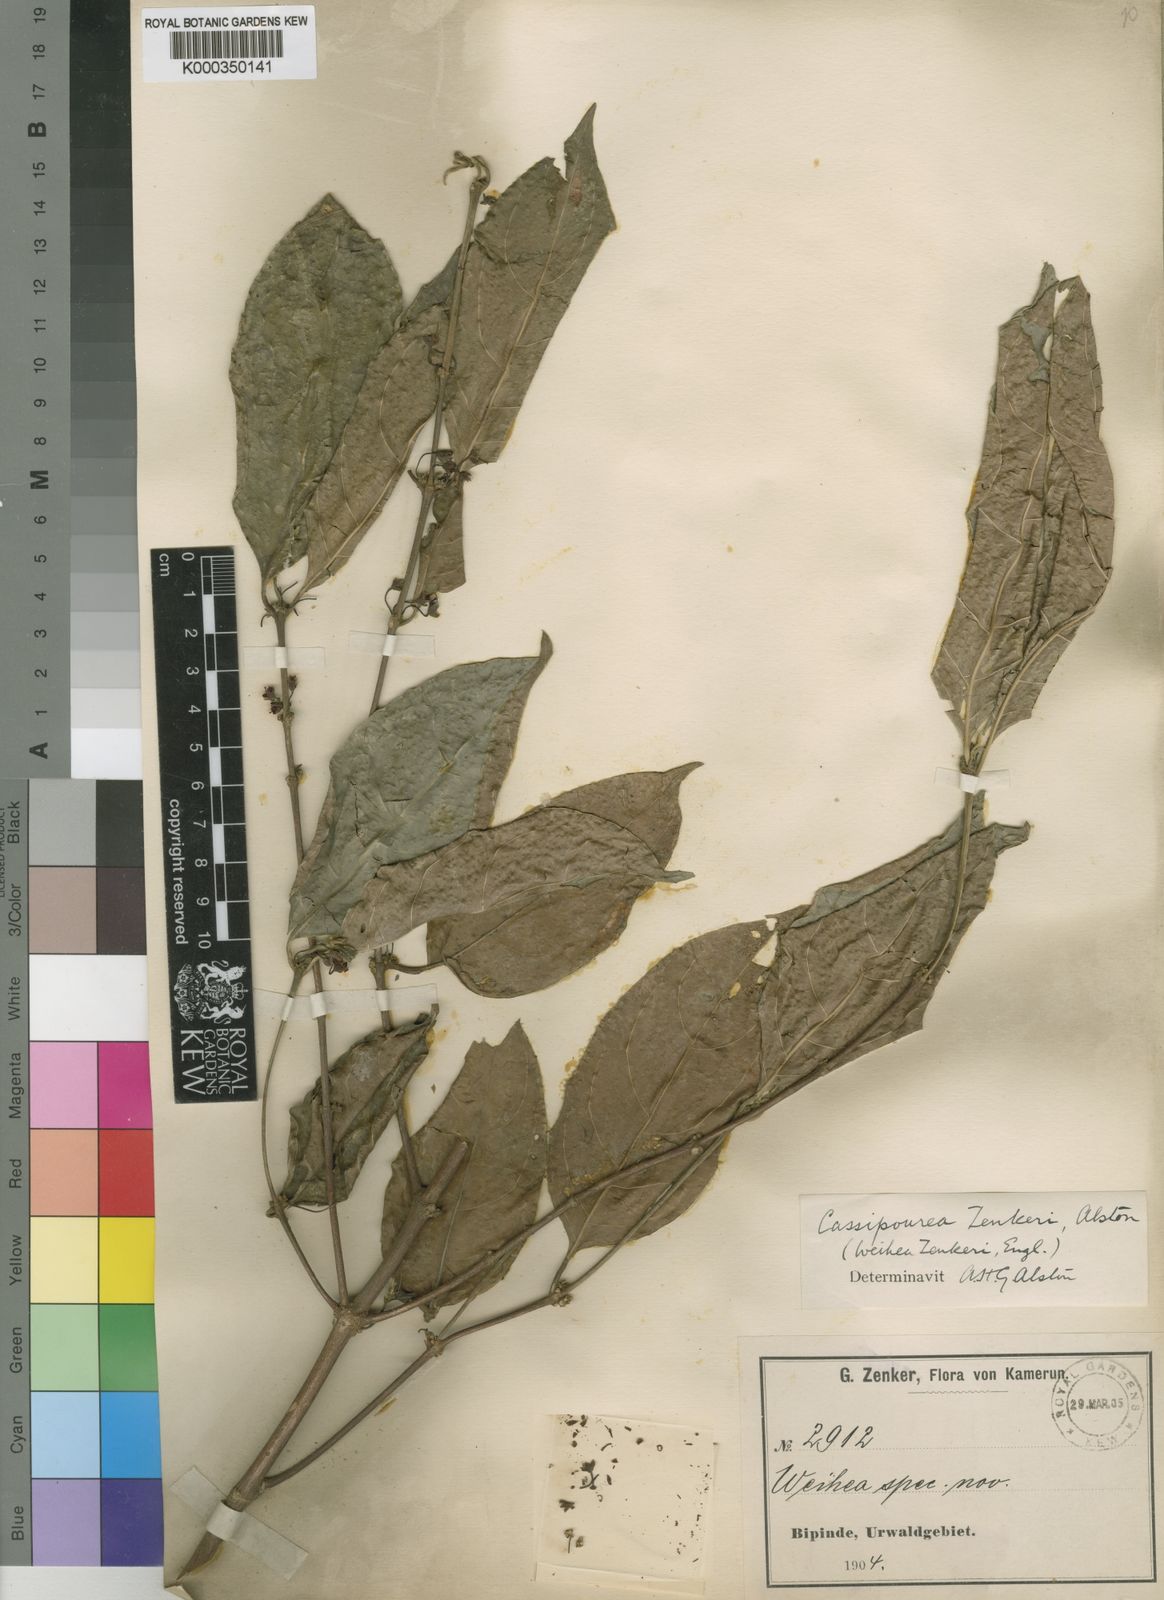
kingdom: Plantae
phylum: Tracheophyta
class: Magnoliopsida
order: Malpighiales
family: Rhizophoraceae
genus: Cassipourea
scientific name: Cassipourea zenkeri
